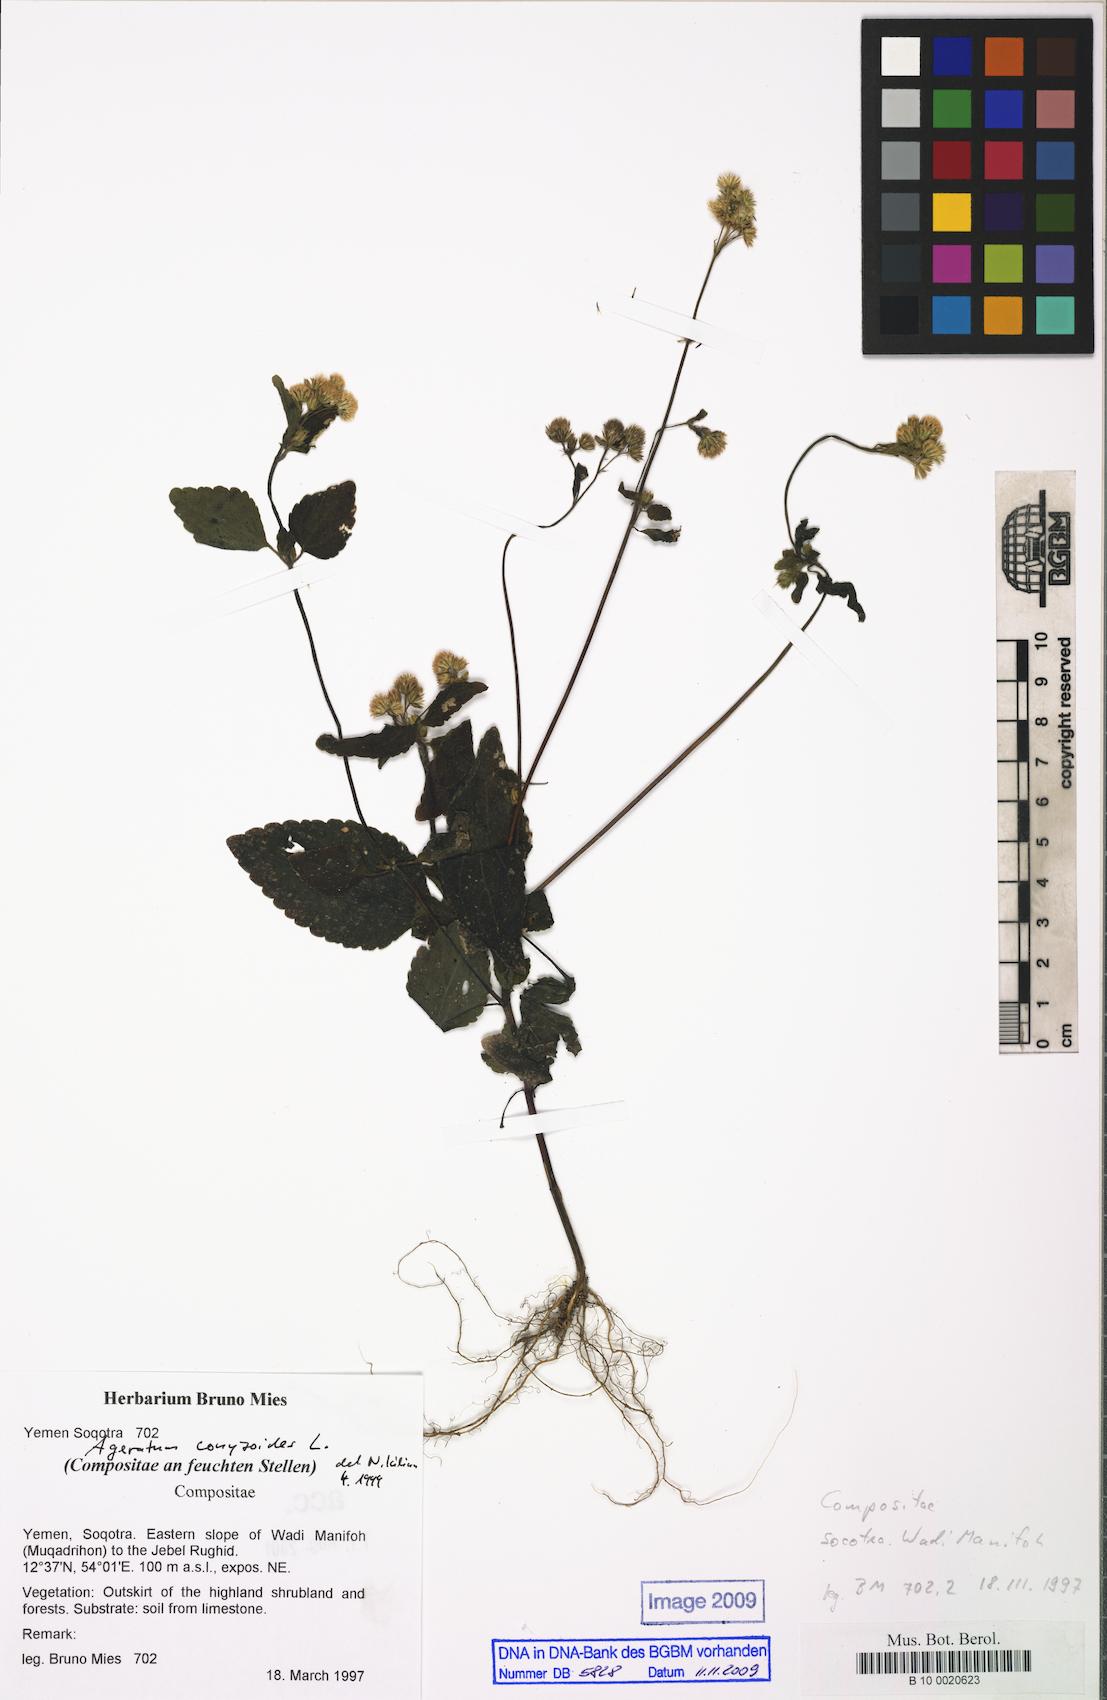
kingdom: Plantae
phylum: Tracheophyta
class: Magnoliopsida
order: Asterales
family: Asteraceae
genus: Ageratum
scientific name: Ageratum conyzoides
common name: Tropical whiteweed
